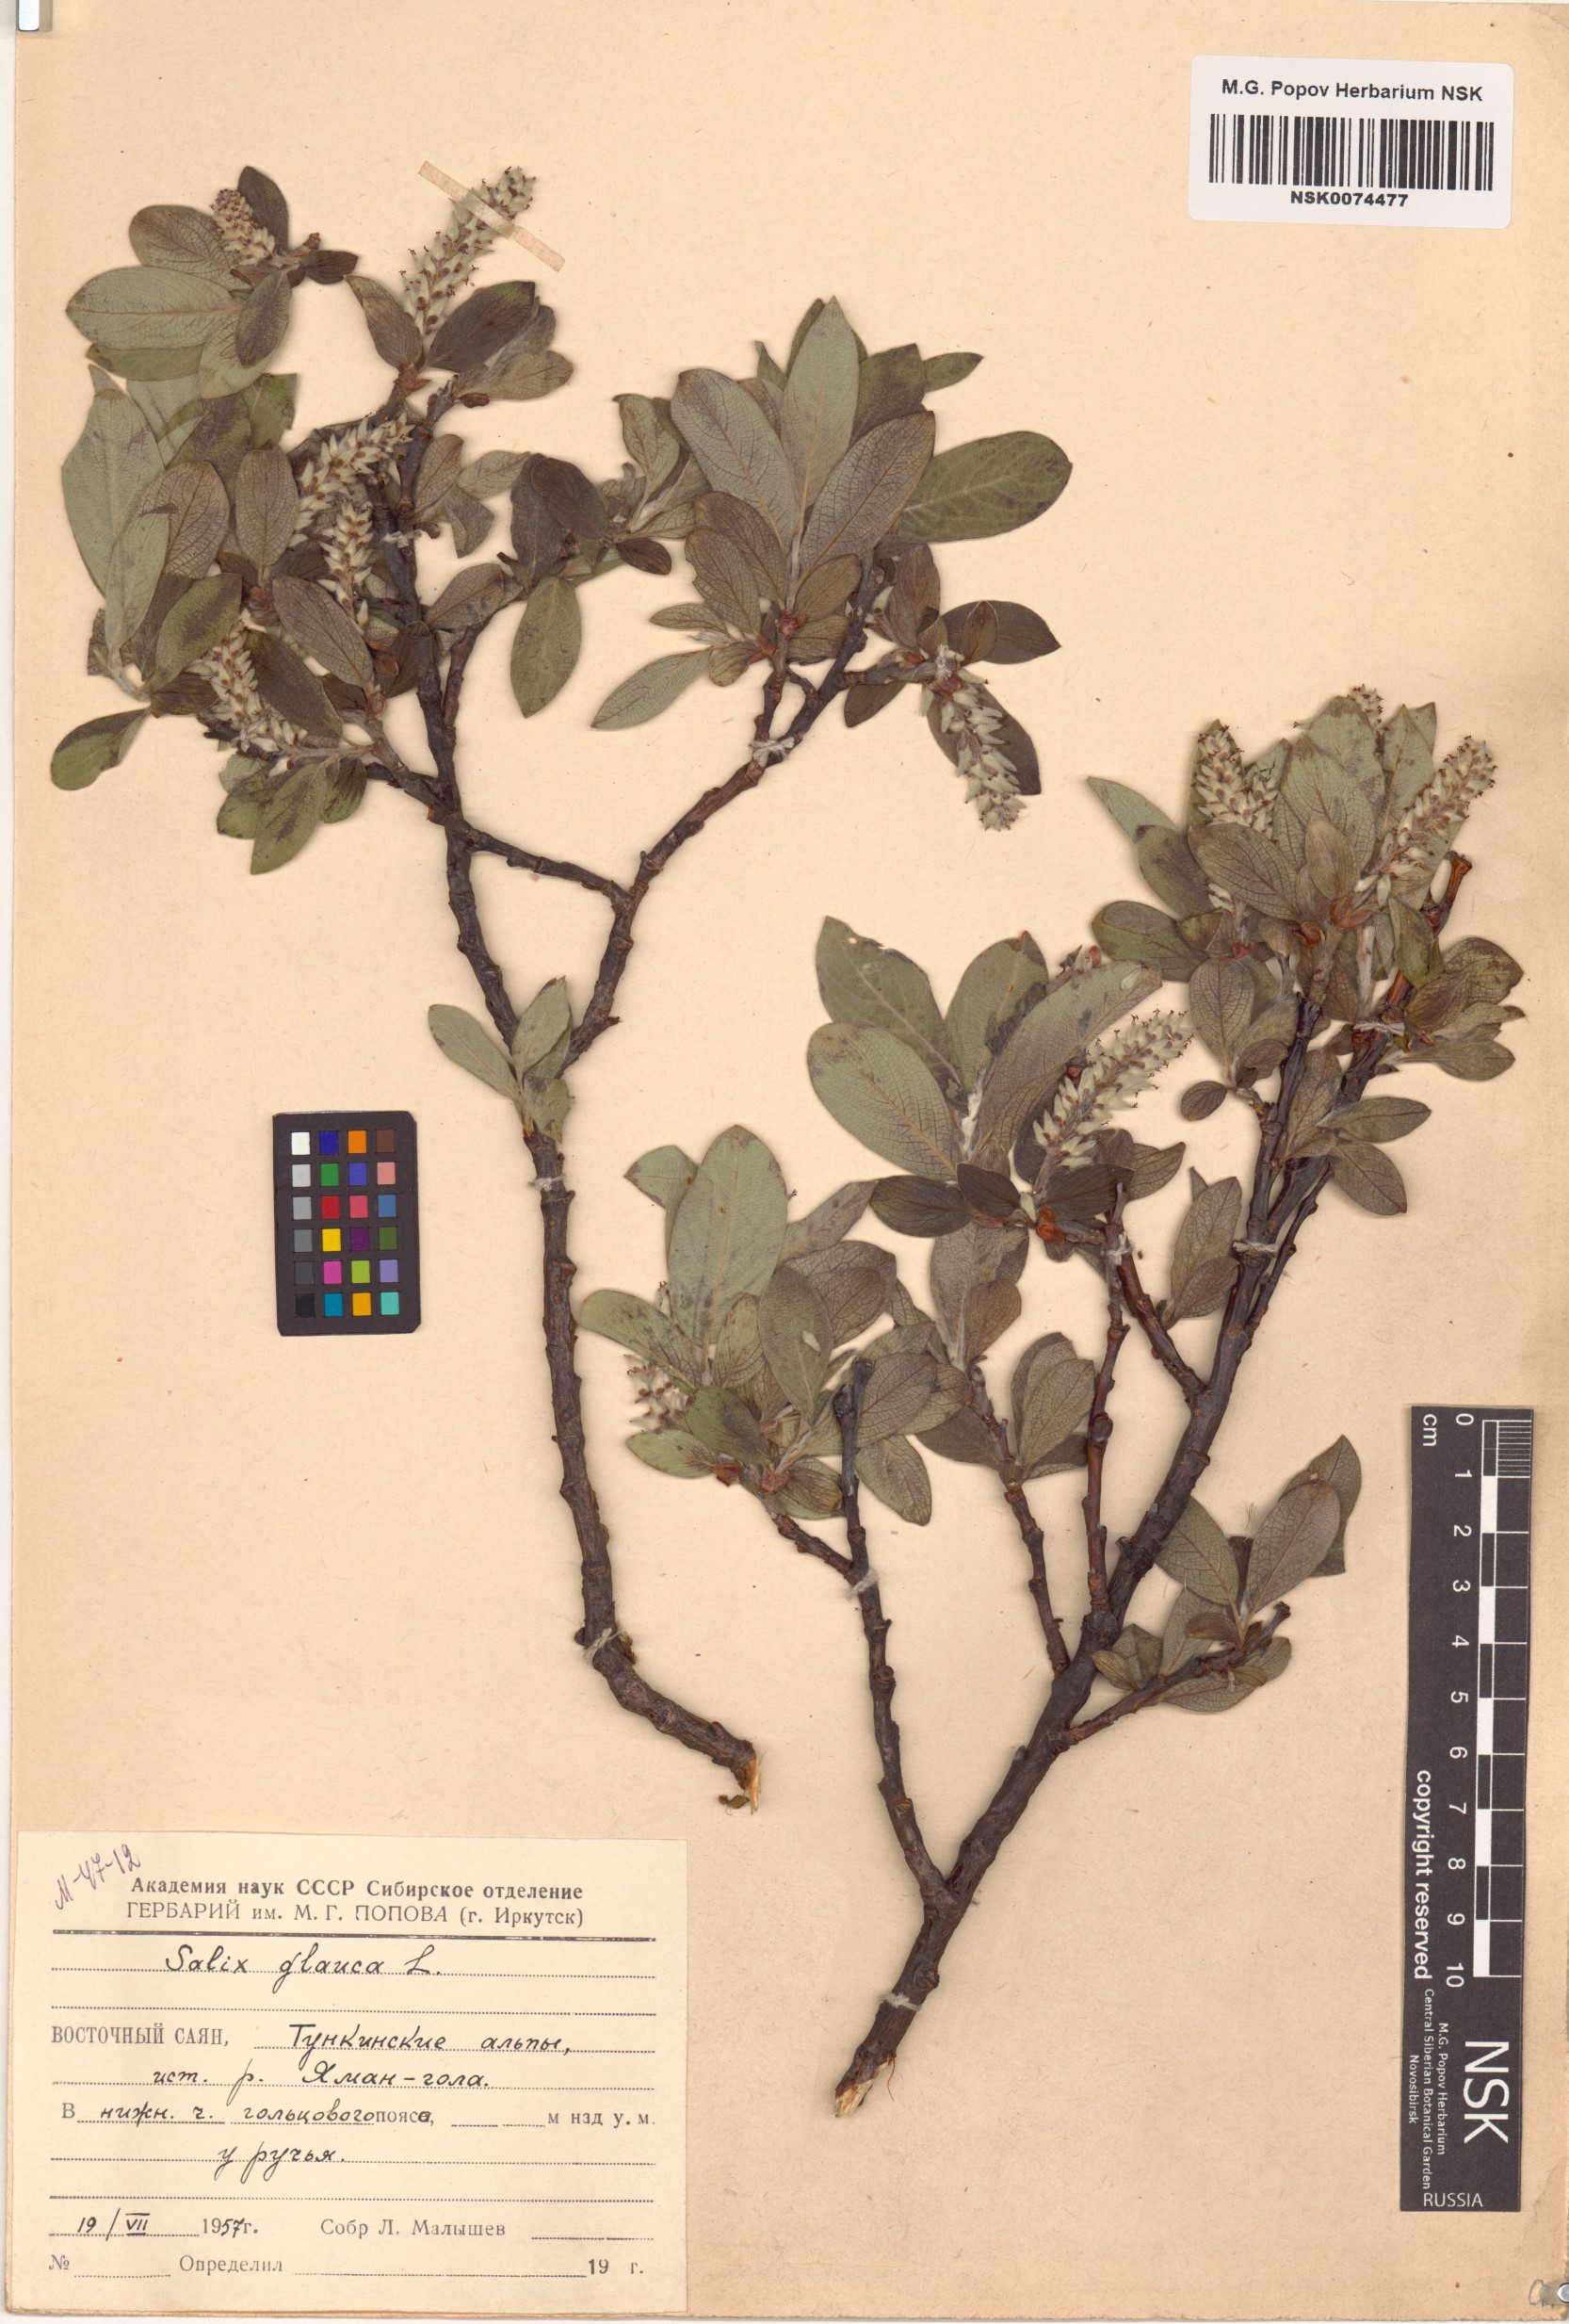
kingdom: Plantae
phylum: Tracheophyta
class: Magnoliopsida
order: Malpighiales
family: Salicaceae
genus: Salix
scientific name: Salix glauca
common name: Glaucous willow
